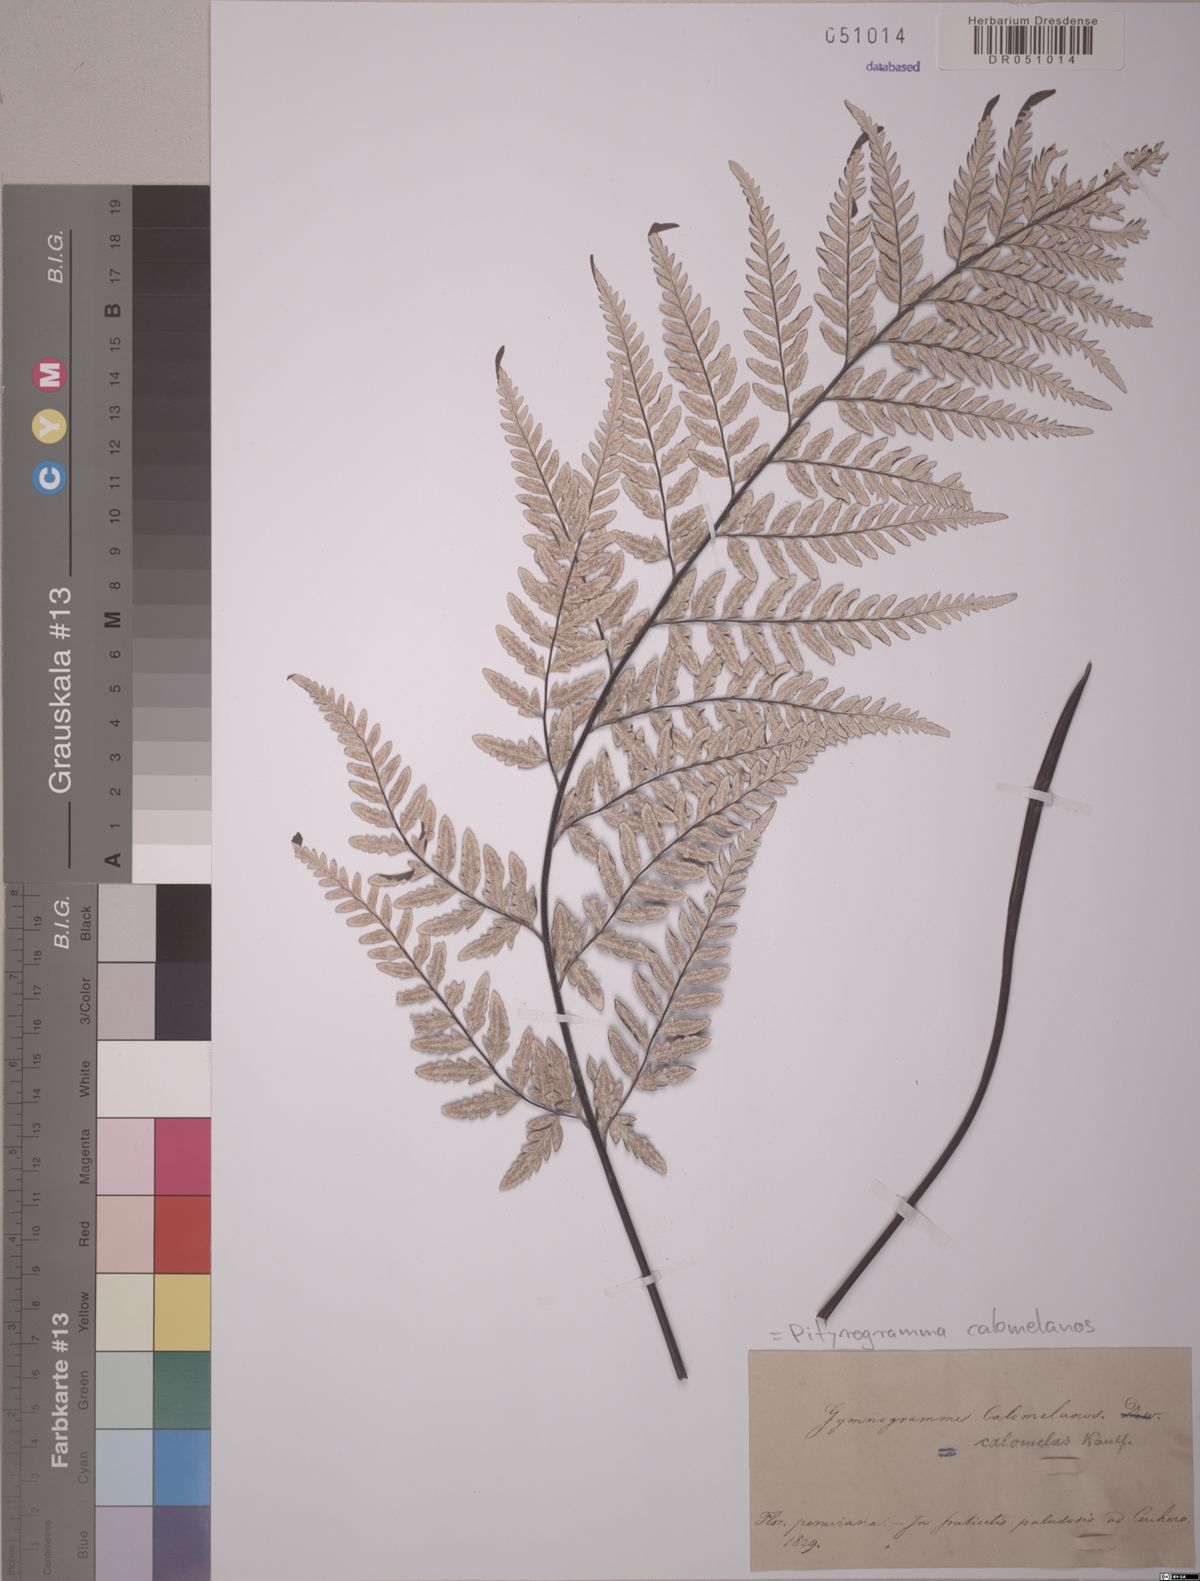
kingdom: Plantae
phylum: Tracheophyta
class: Polypodiopsida
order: Polypodiales
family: Pteridaceae
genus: Pityrogramma
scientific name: Pityrogramma calomelanos
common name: Dixie silverback fern
